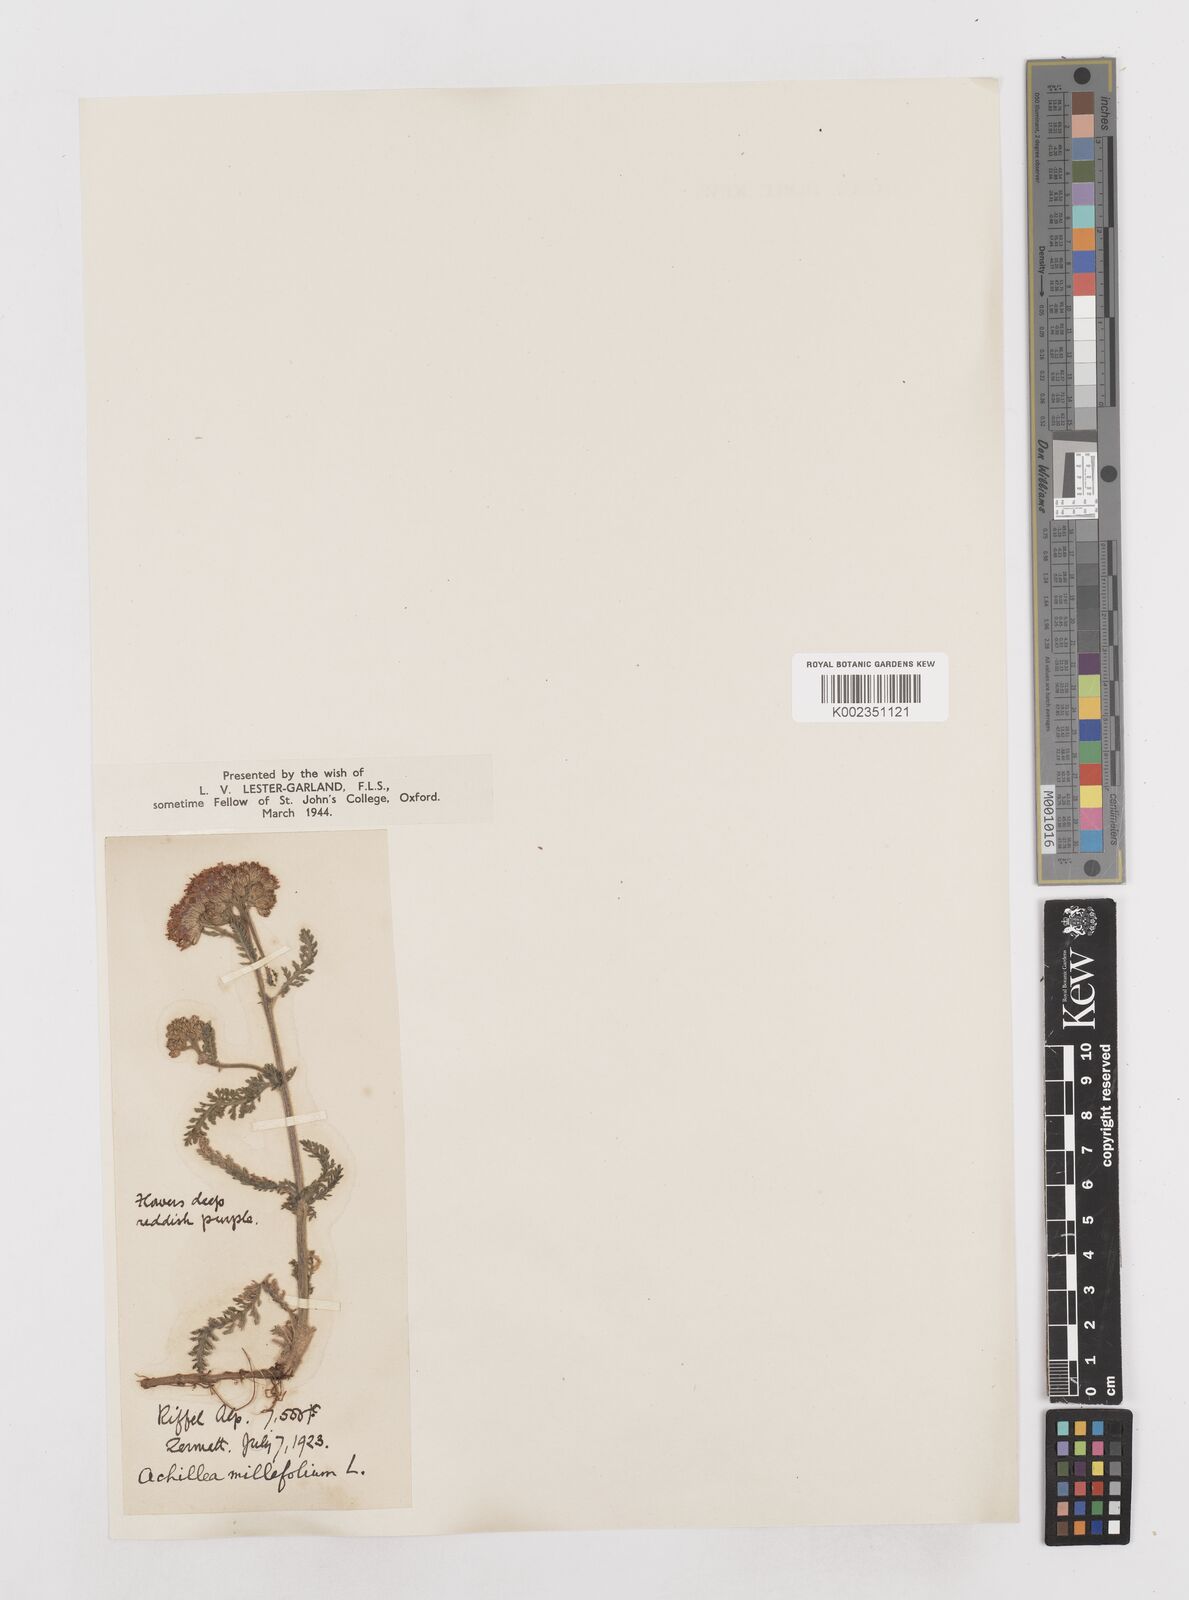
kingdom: Plantae
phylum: Tracheophyta
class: Magnoliopsida
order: Asterales
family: Asteraceae
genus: Achillea
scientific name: Achillea millefolium
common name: Yarrow
